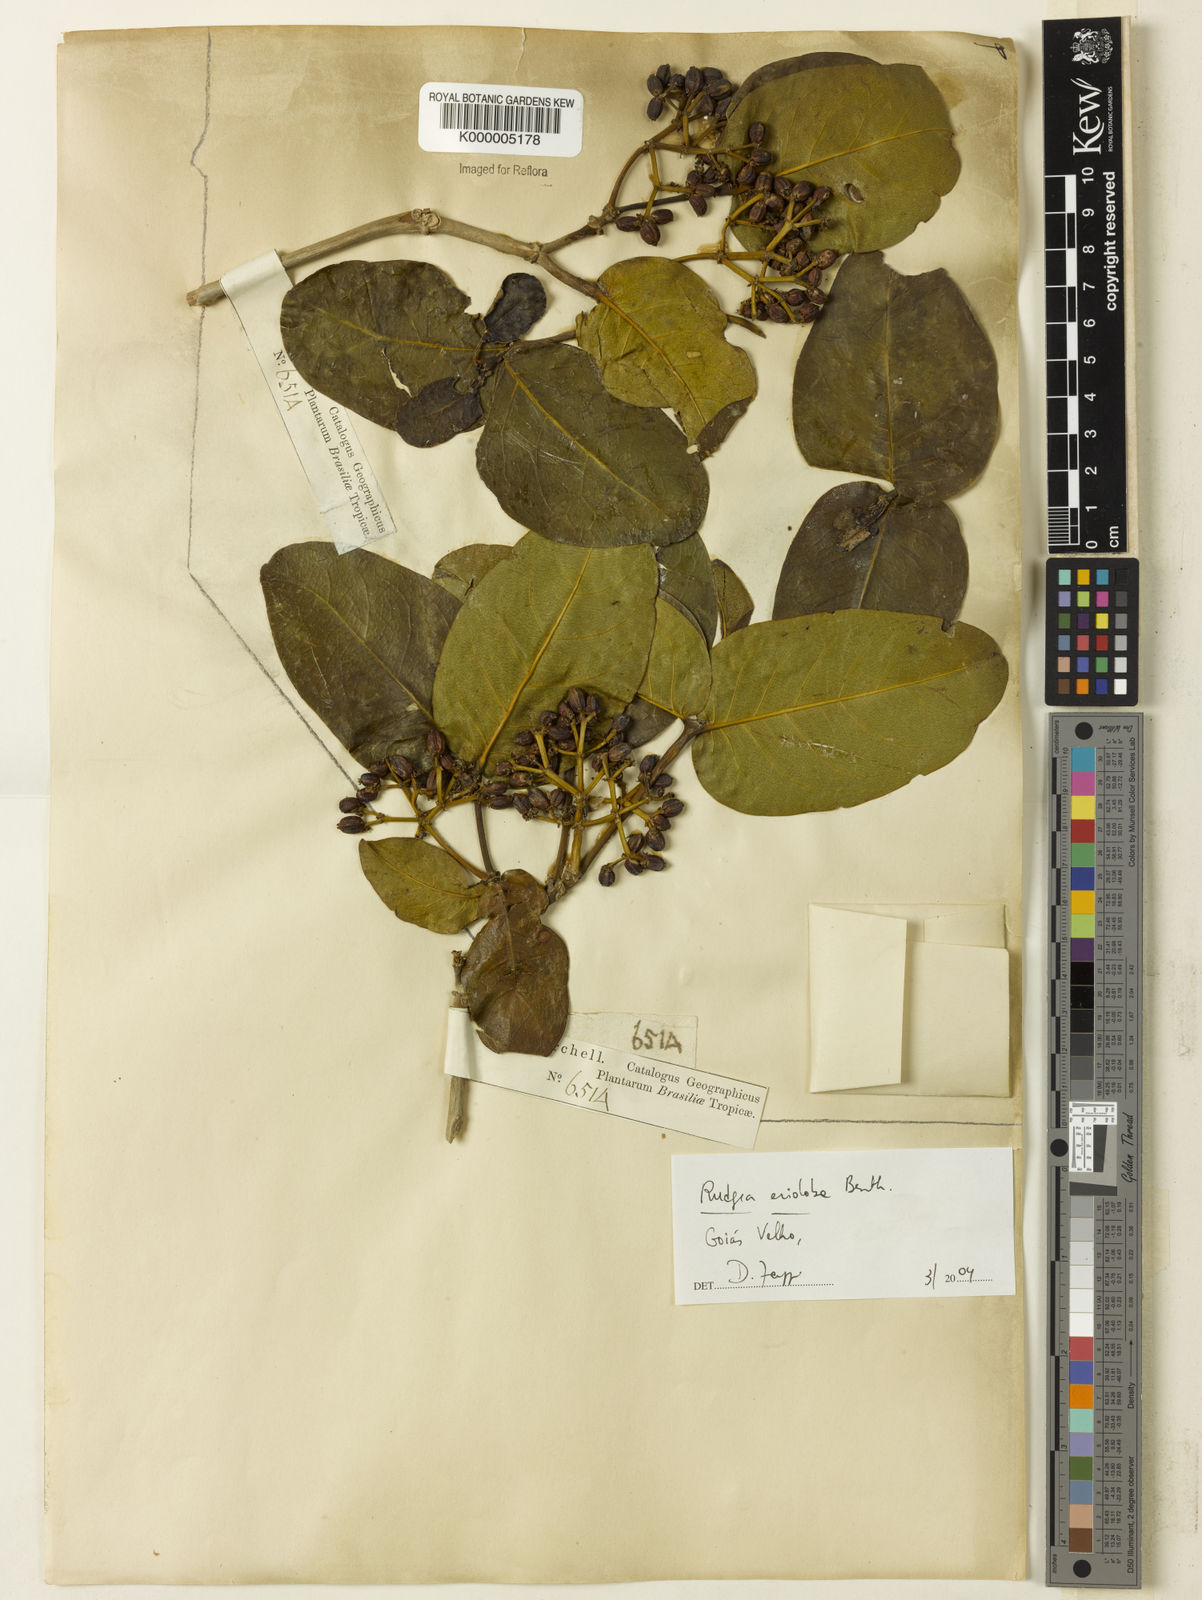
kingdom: Plantae
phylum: Tracheophyta
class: Magnoliopsida
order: Gentianales
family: Rubiaceae
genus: Rudgea
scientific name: Rudgea erioloba
